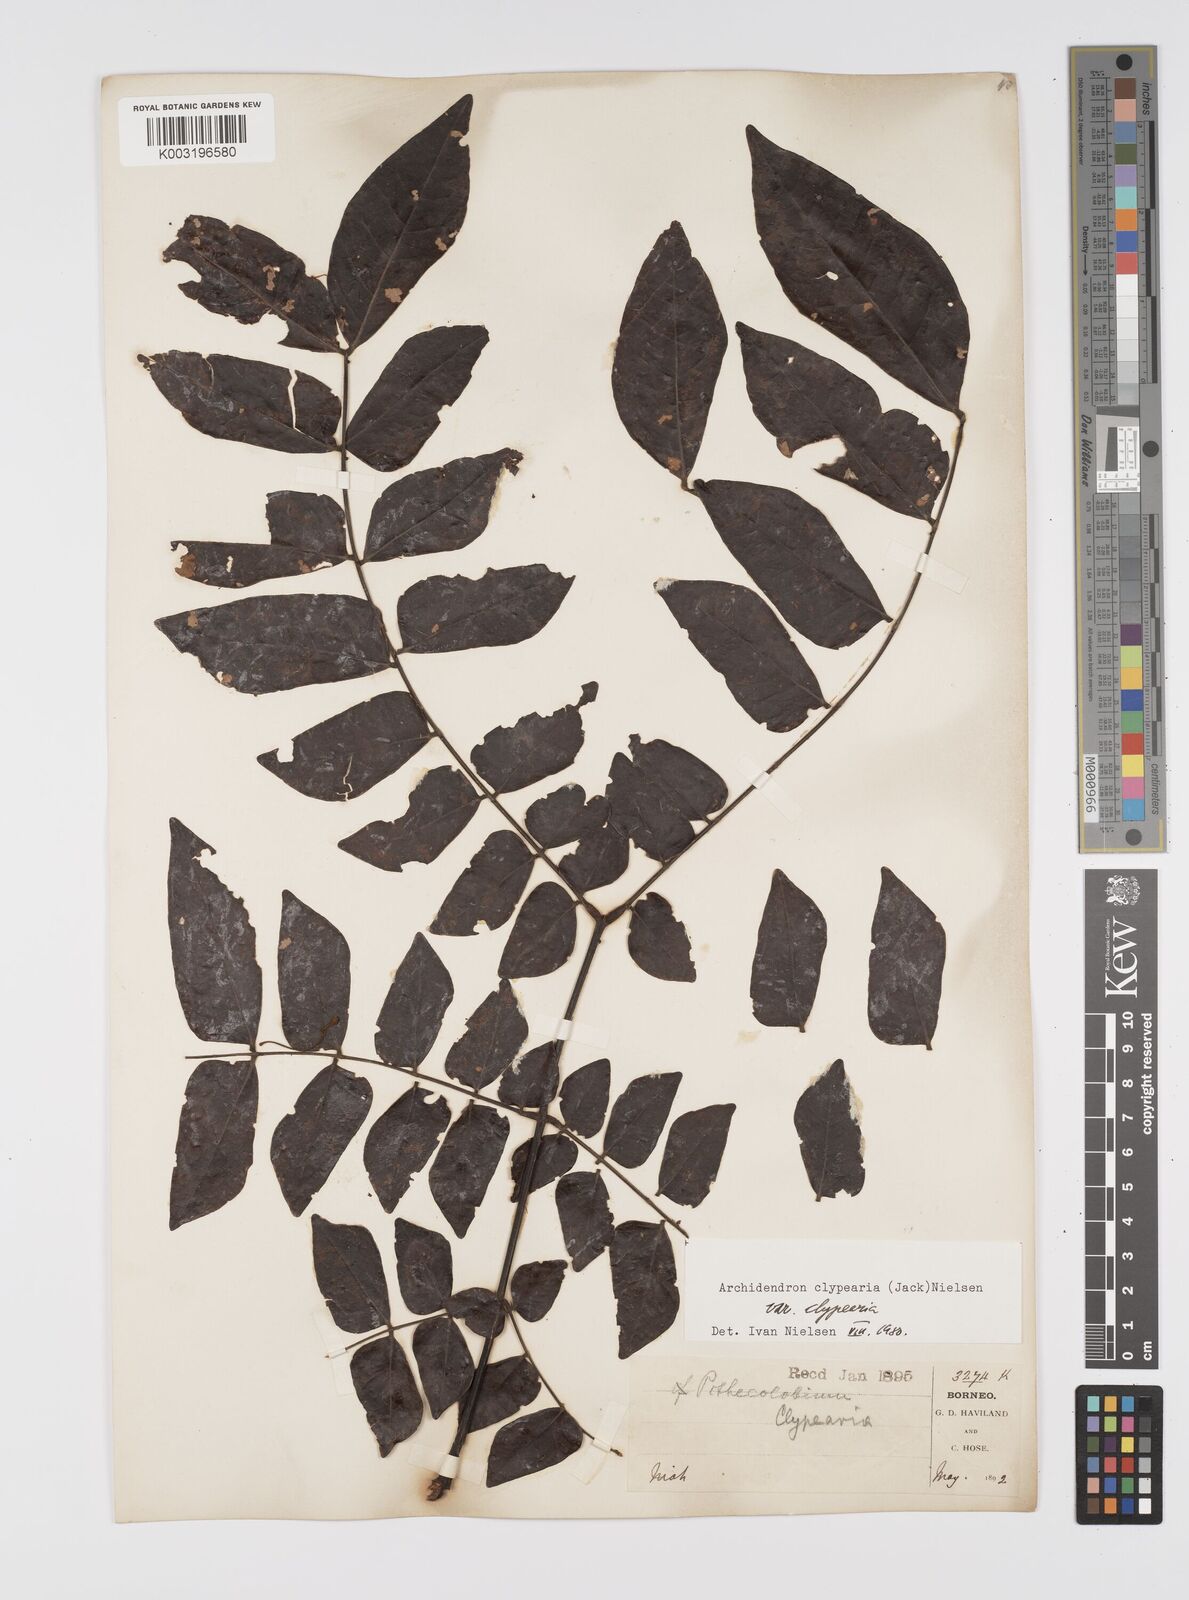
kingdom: Plantae
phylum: Tracheophyta
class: Magnoliopsida
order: Fabales
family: Fabaceae
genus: Archidendron
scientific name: Archidendron clypearia
